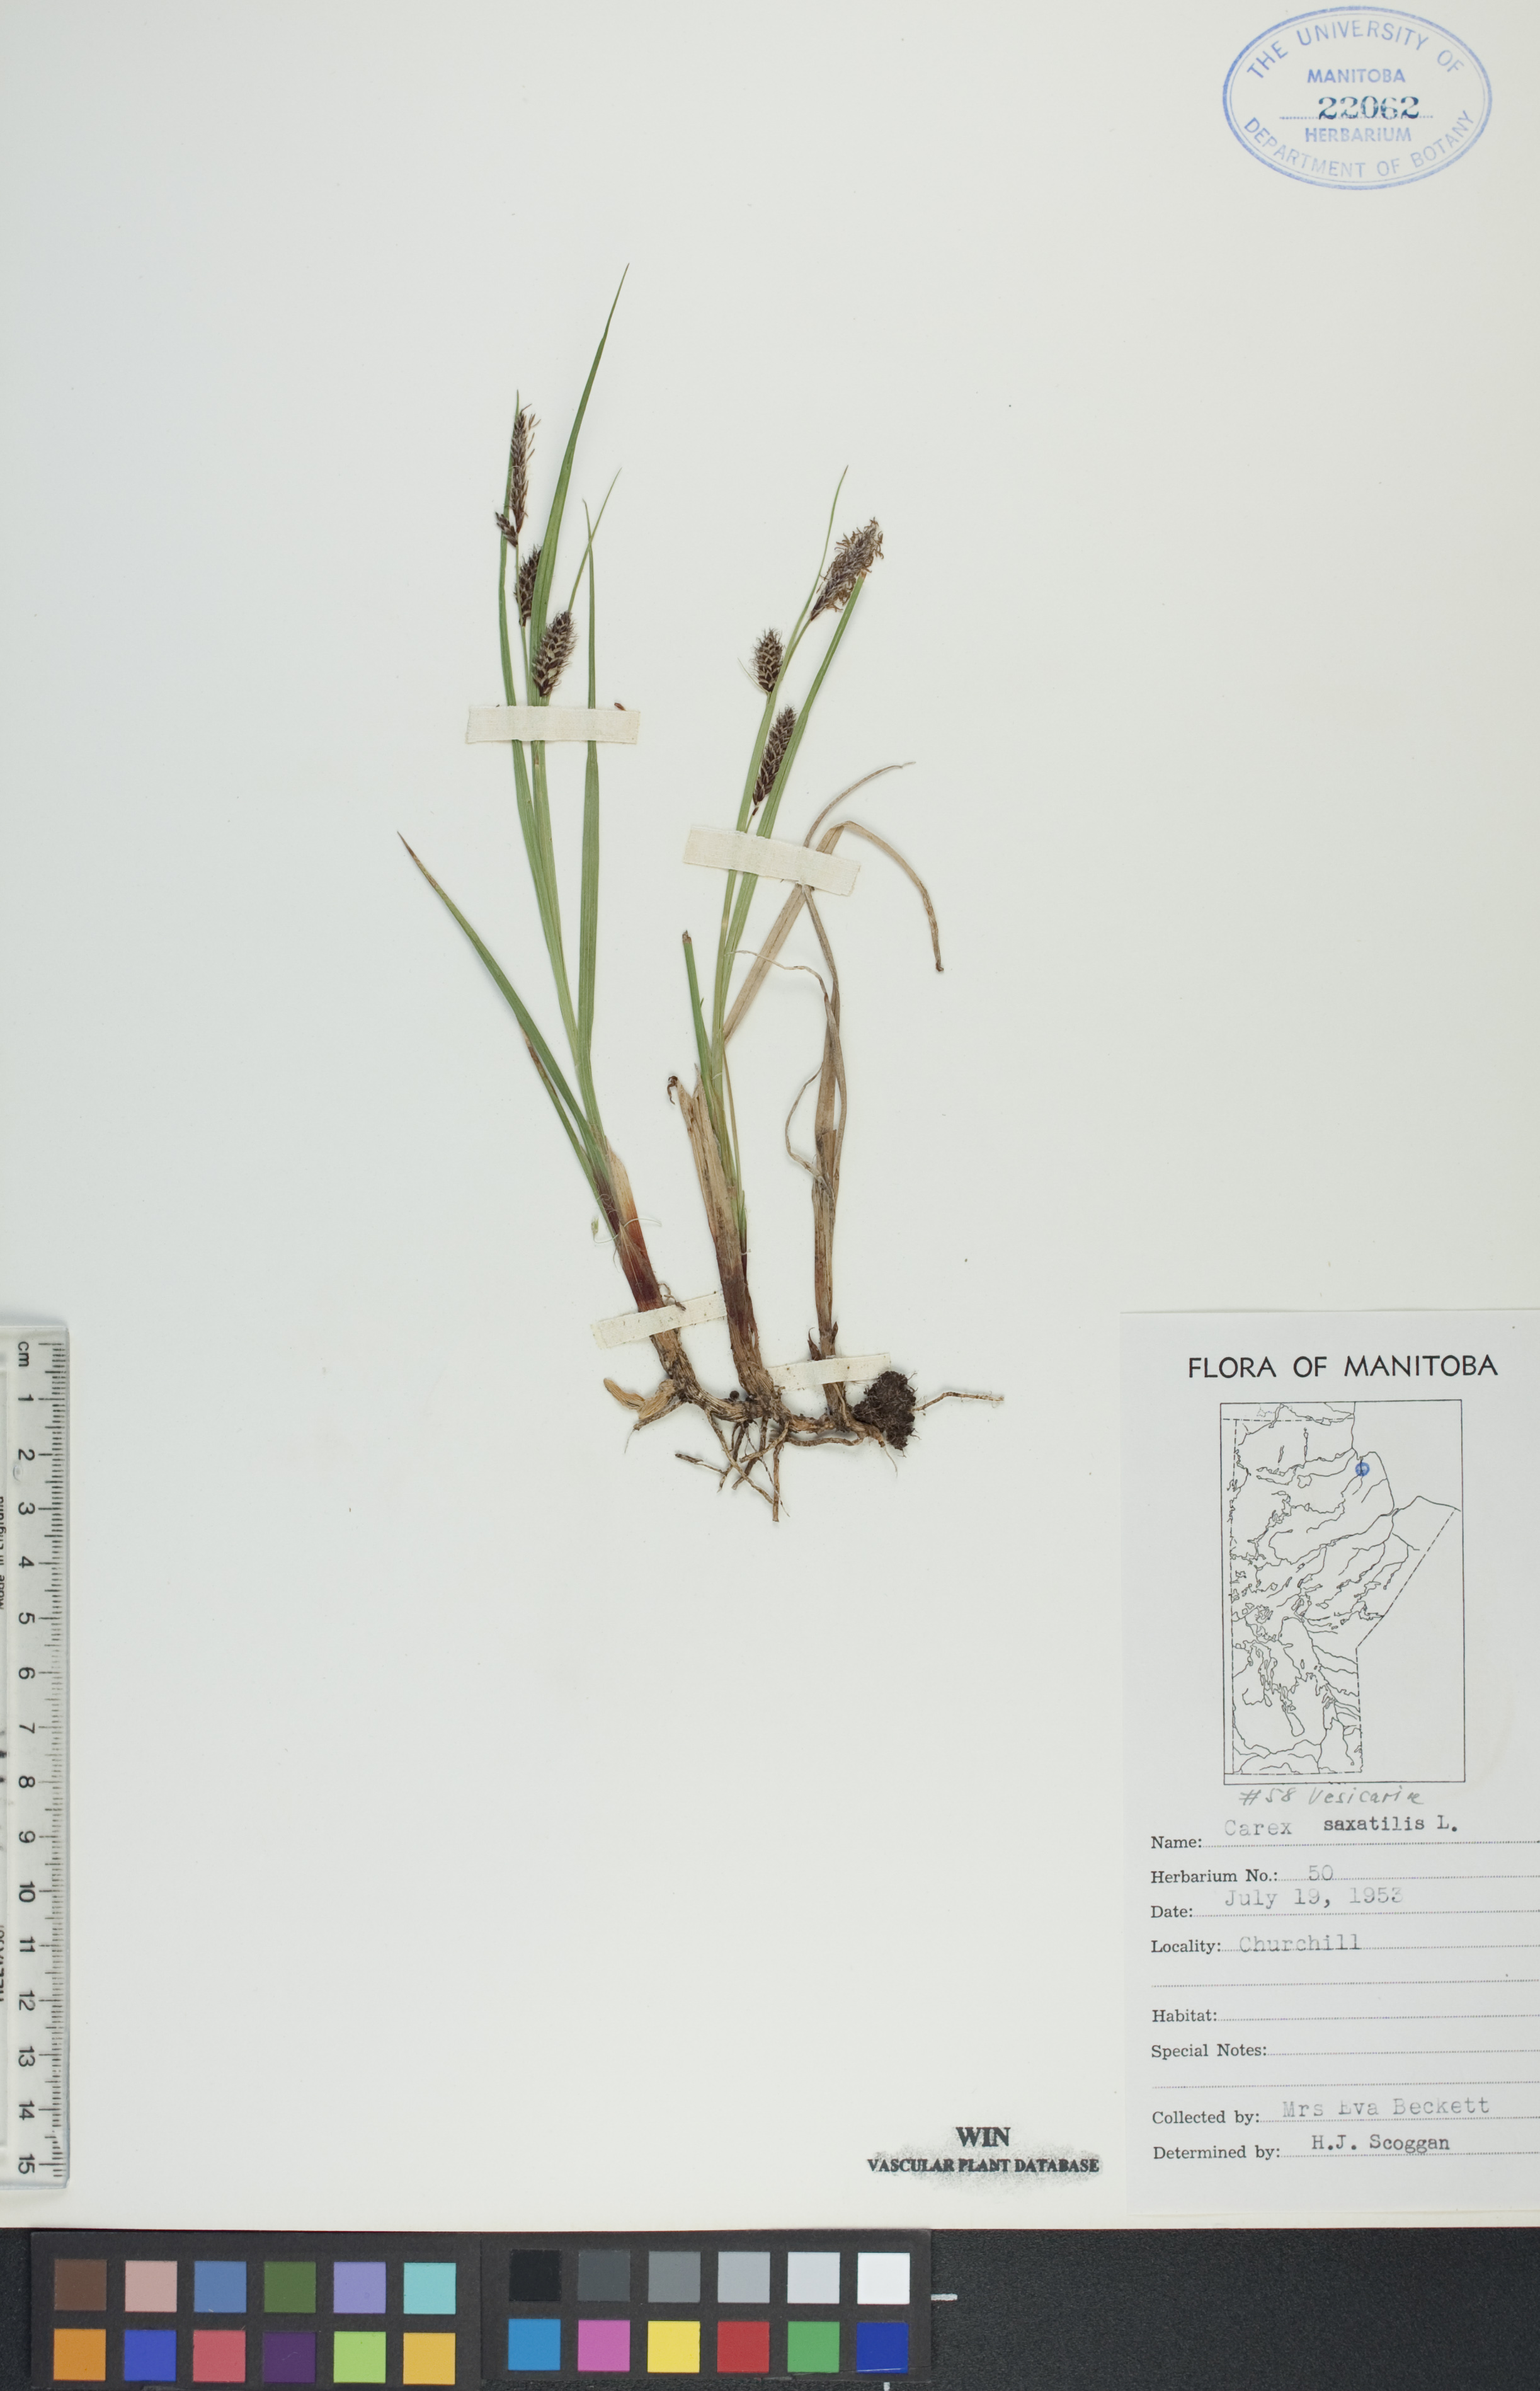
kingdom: Plantae
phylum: Tracheophyta
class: Liliopsida
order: Poales
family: Cyperaceae
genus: Carex
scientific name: Carex saxatilis
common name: Russet sedge
